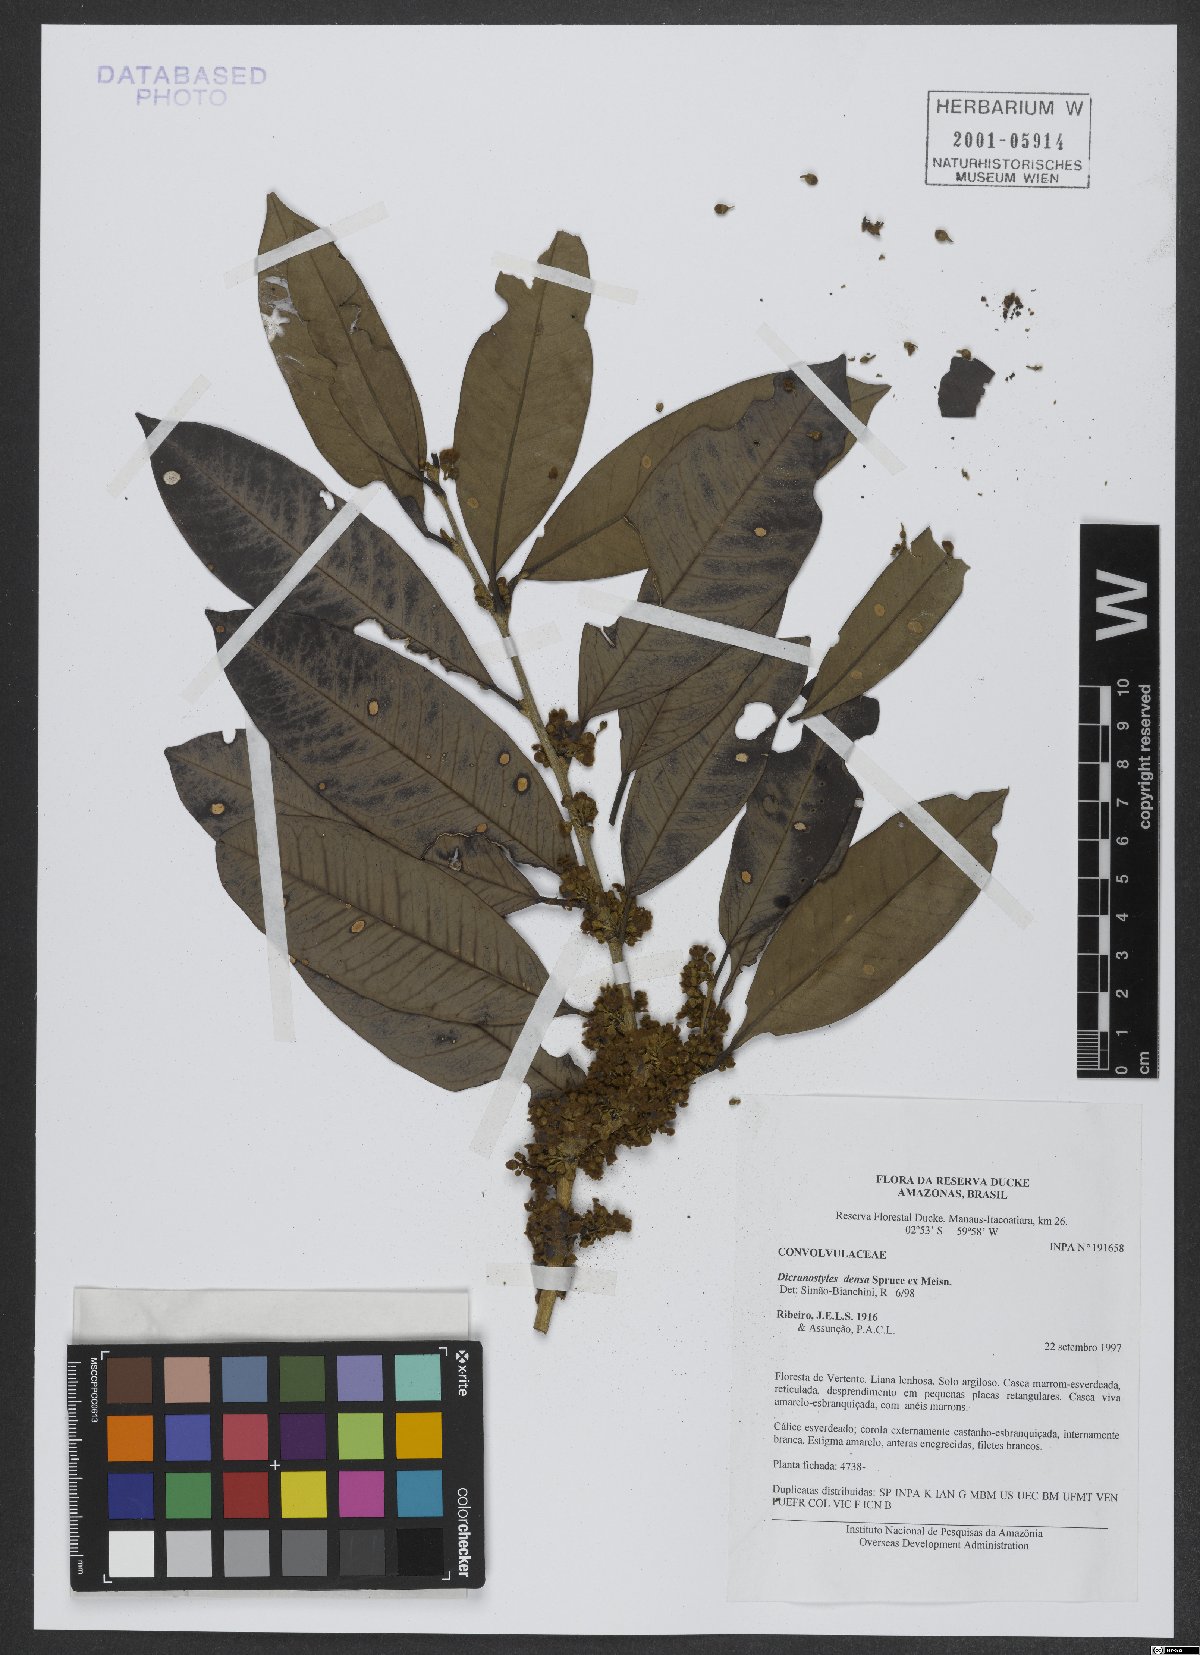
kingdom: Plantae
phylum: Tracheophyta
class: Magnoliopsida
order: Solanales
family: Convolvulaceae
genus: Dicranostyles
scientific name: Dicranostyles densa
